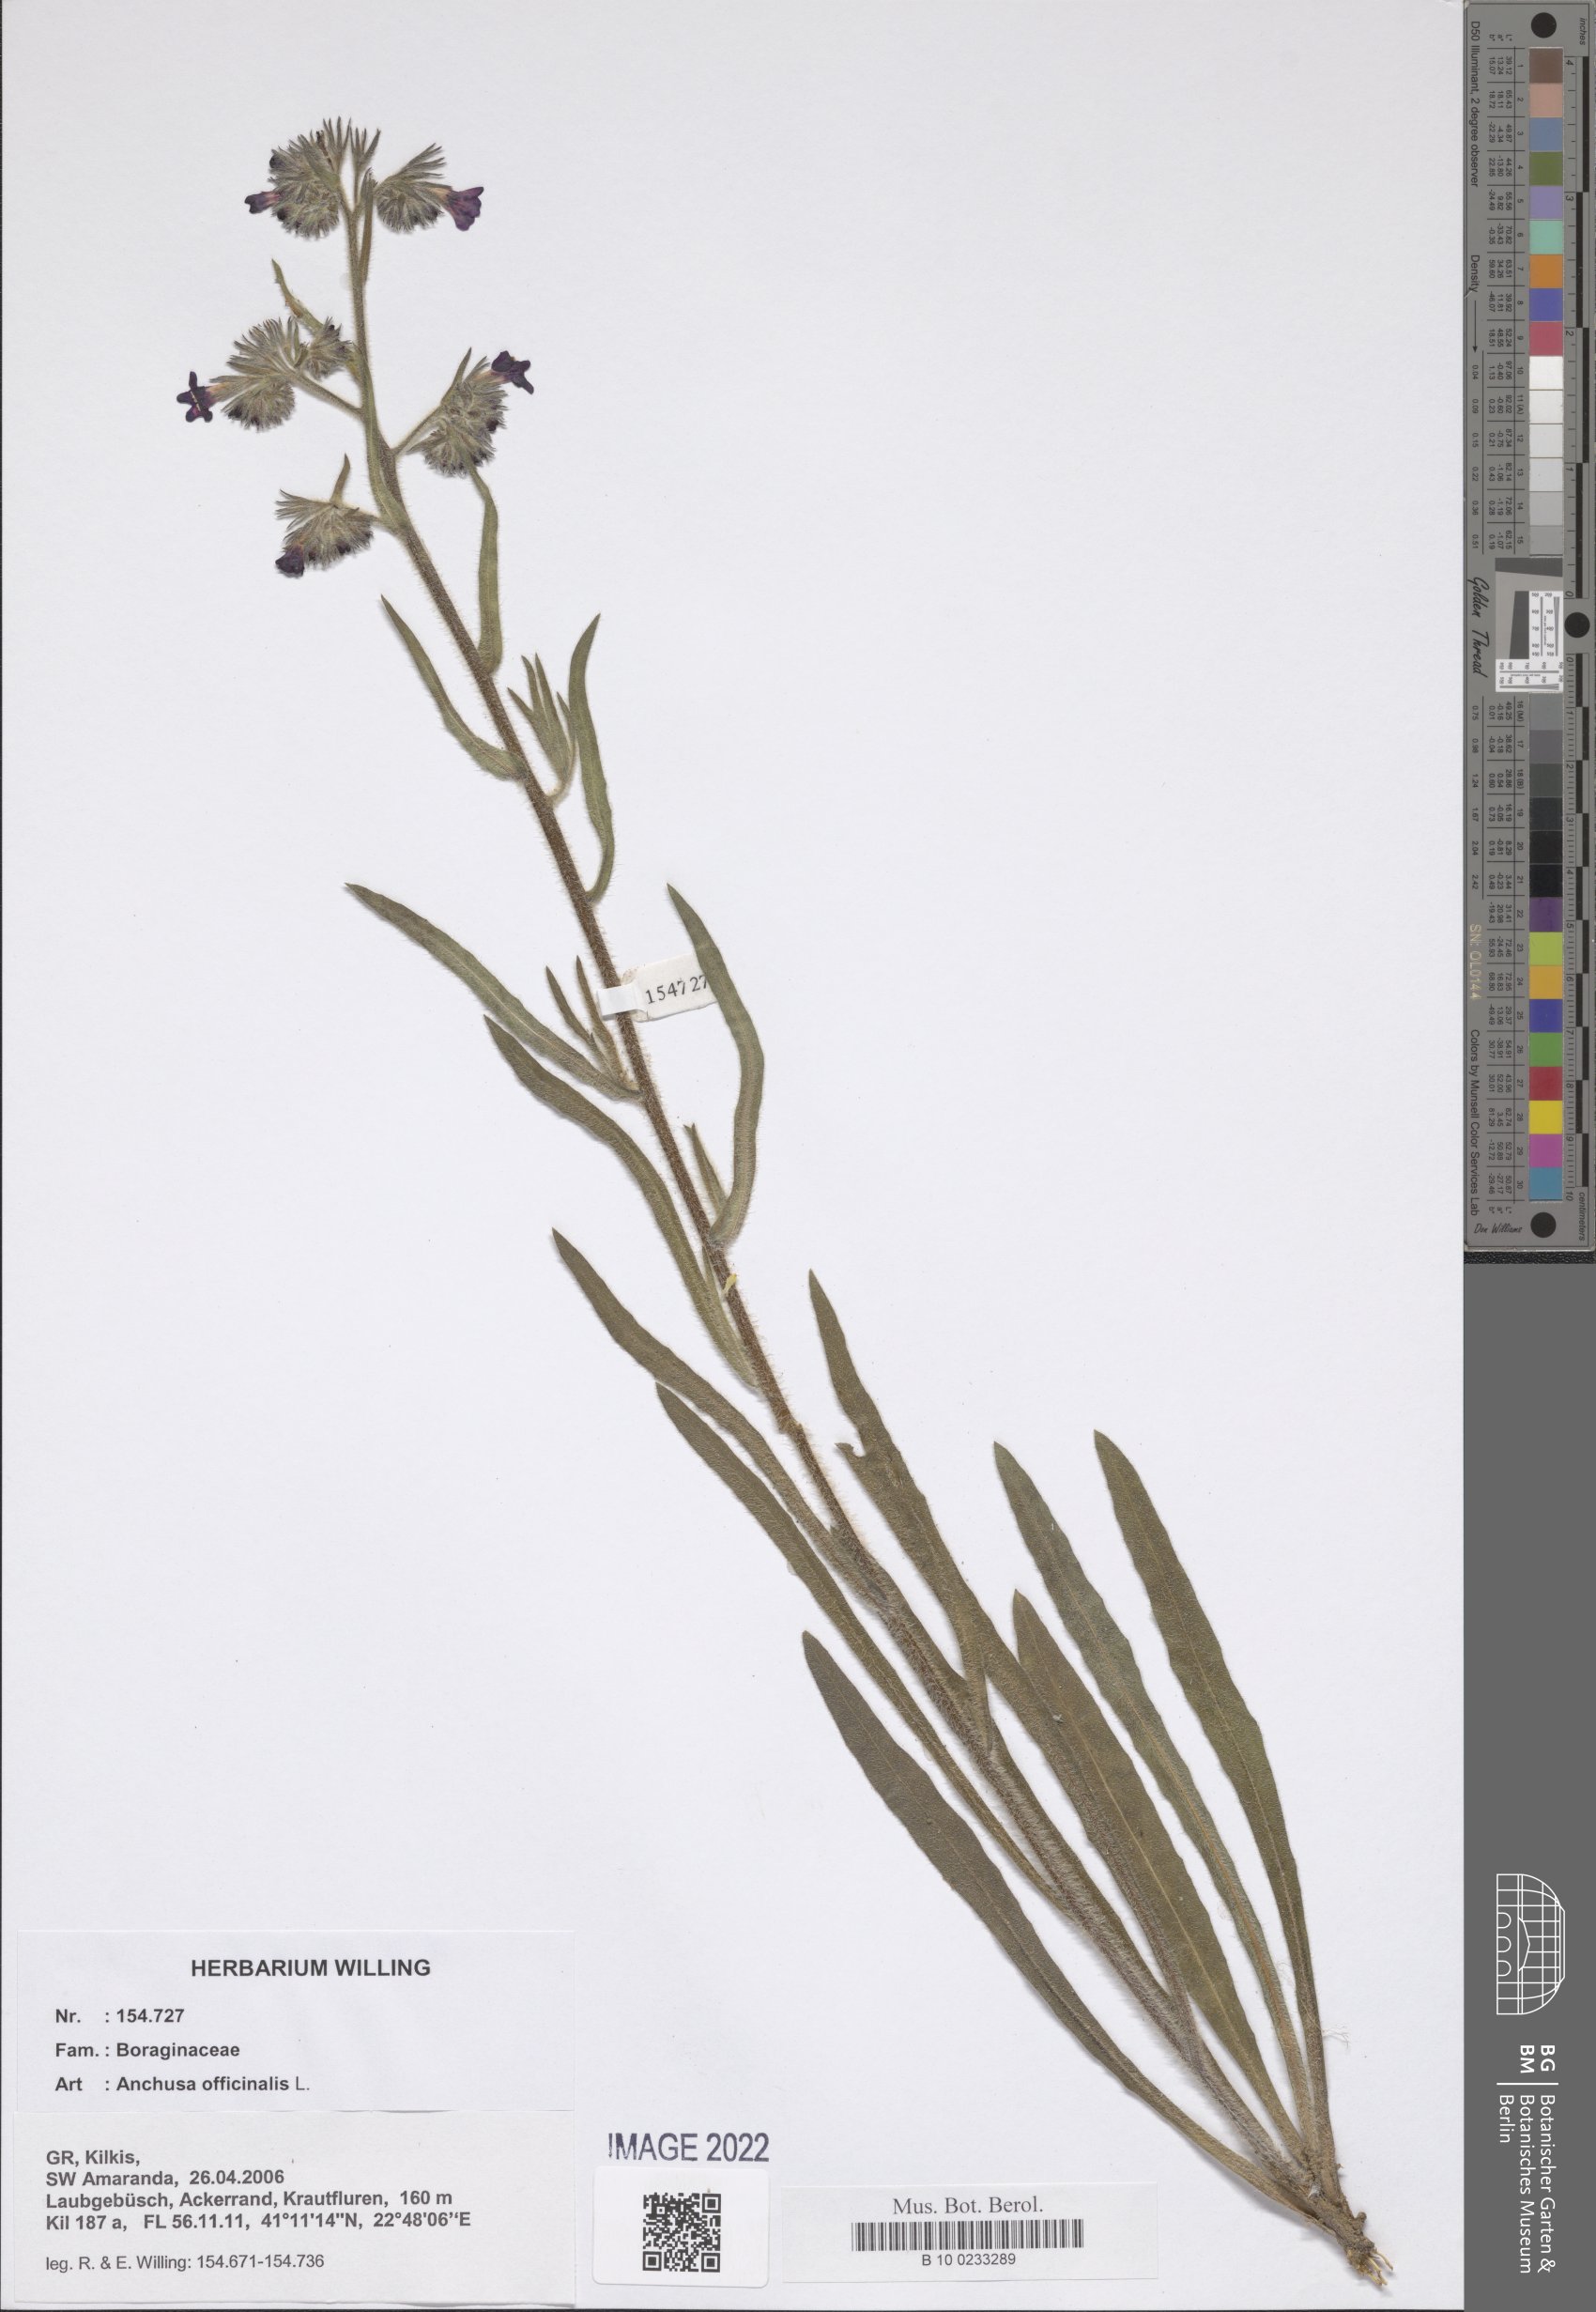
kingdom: Plantae
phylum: Tracheophyta
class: Magnoliopsida
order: Boraginales
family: Boraginaceae
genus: Anchusa
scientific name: Anchusa officinalis
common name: Alkanet
